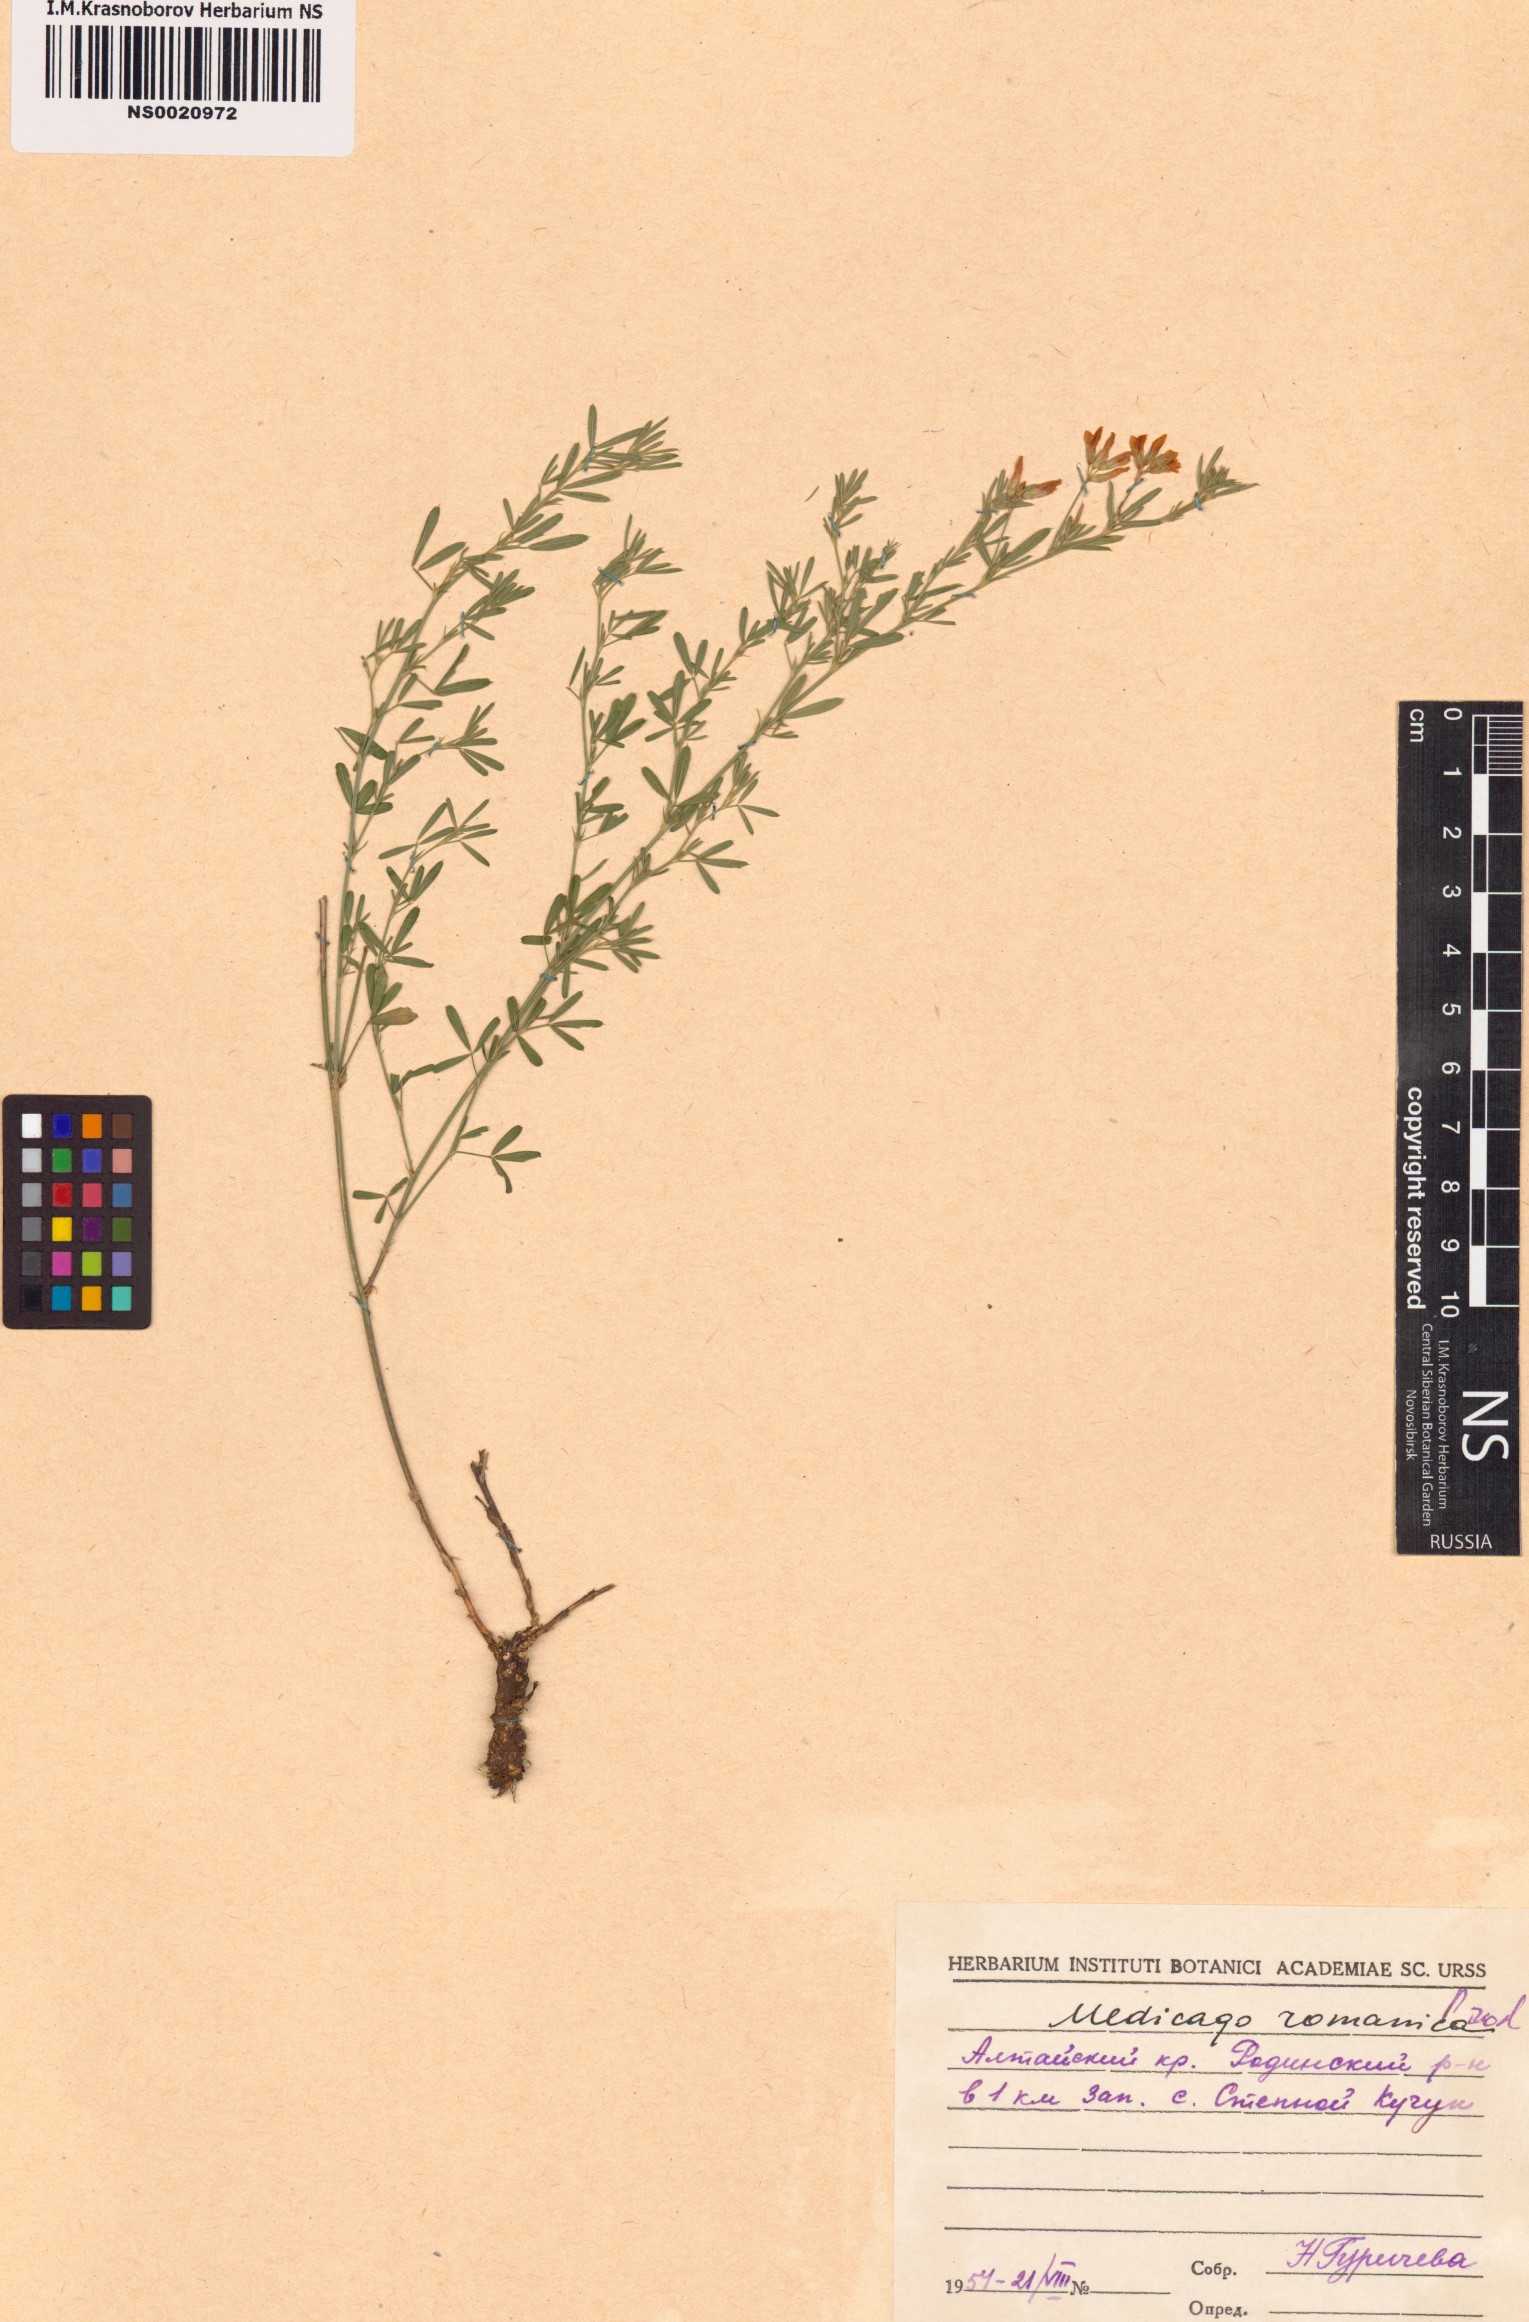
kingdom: Plantae
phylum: Tracheophyta
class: Magnoliopsida
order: Fabales
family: Fabaceae
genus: Medicago
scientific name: Medicago falcata
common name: Sickle medick
